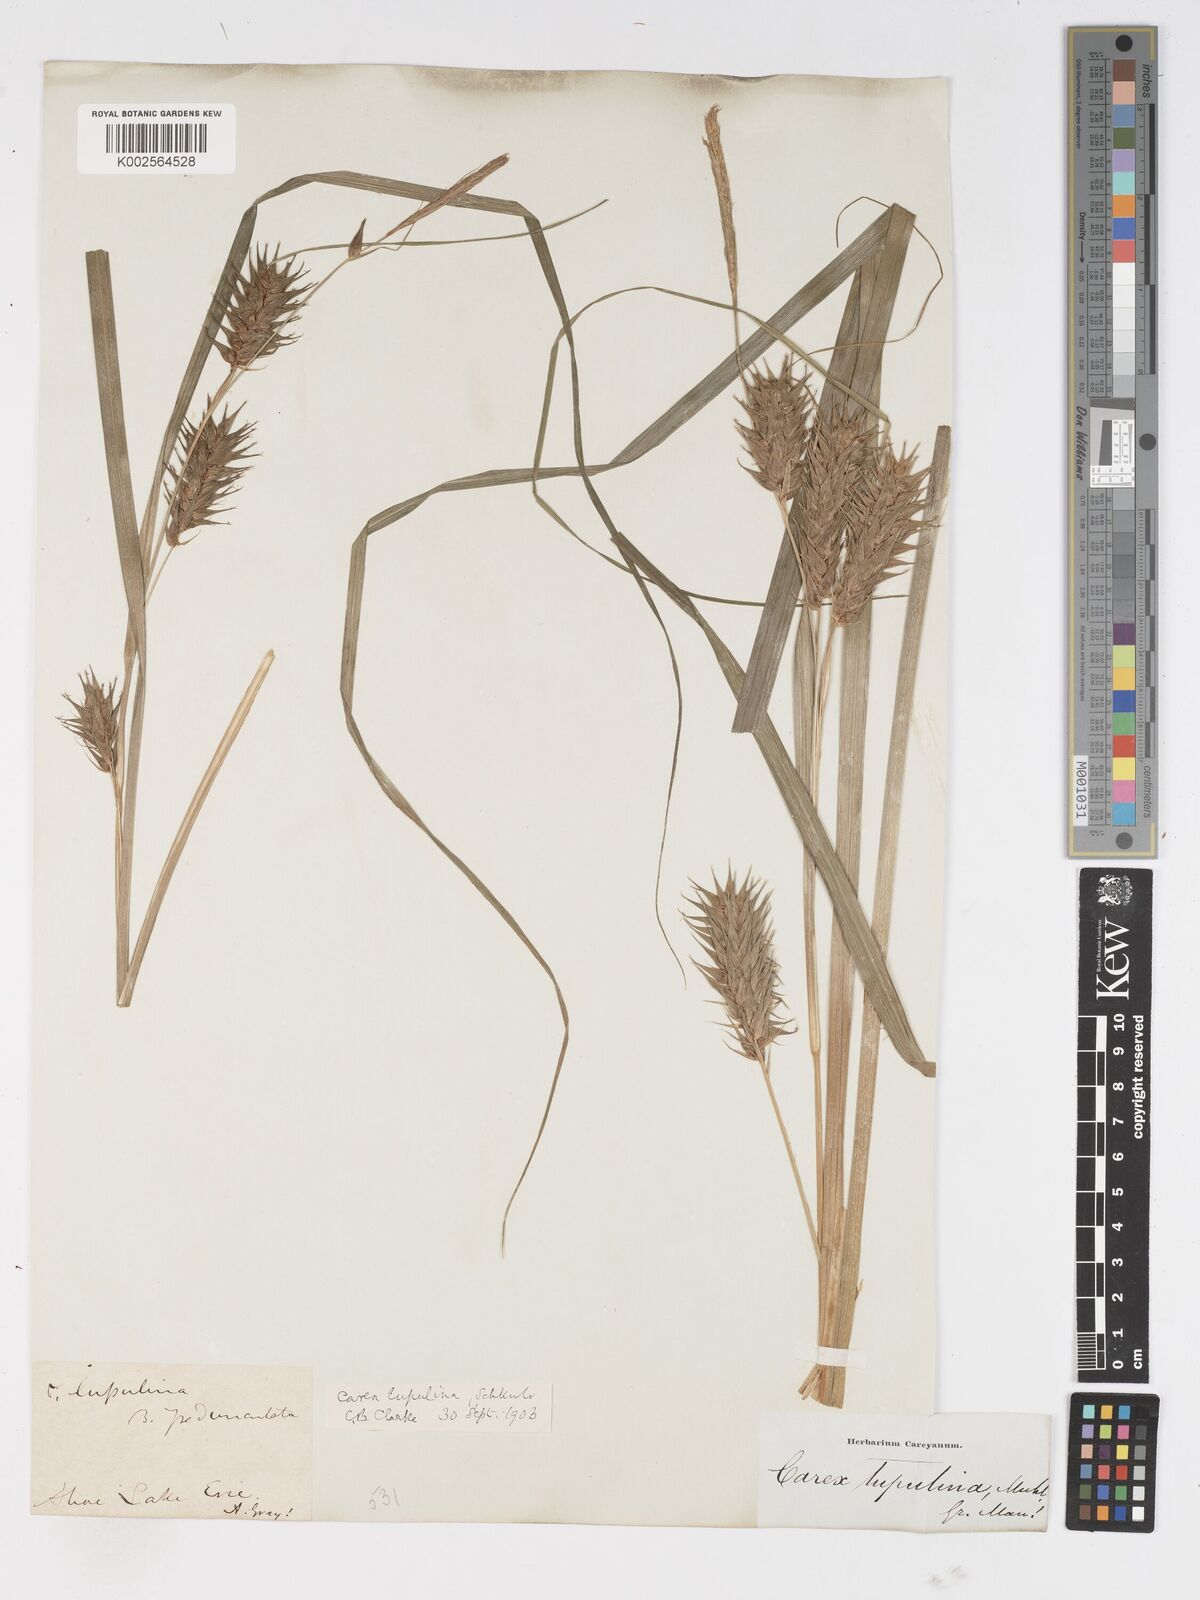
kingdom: Plantae
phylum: Tracheophyta
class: Liliopsida
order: Poales
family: Cyperaceae
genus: Carex
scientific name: Carex lupulina
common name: Hop sedge
